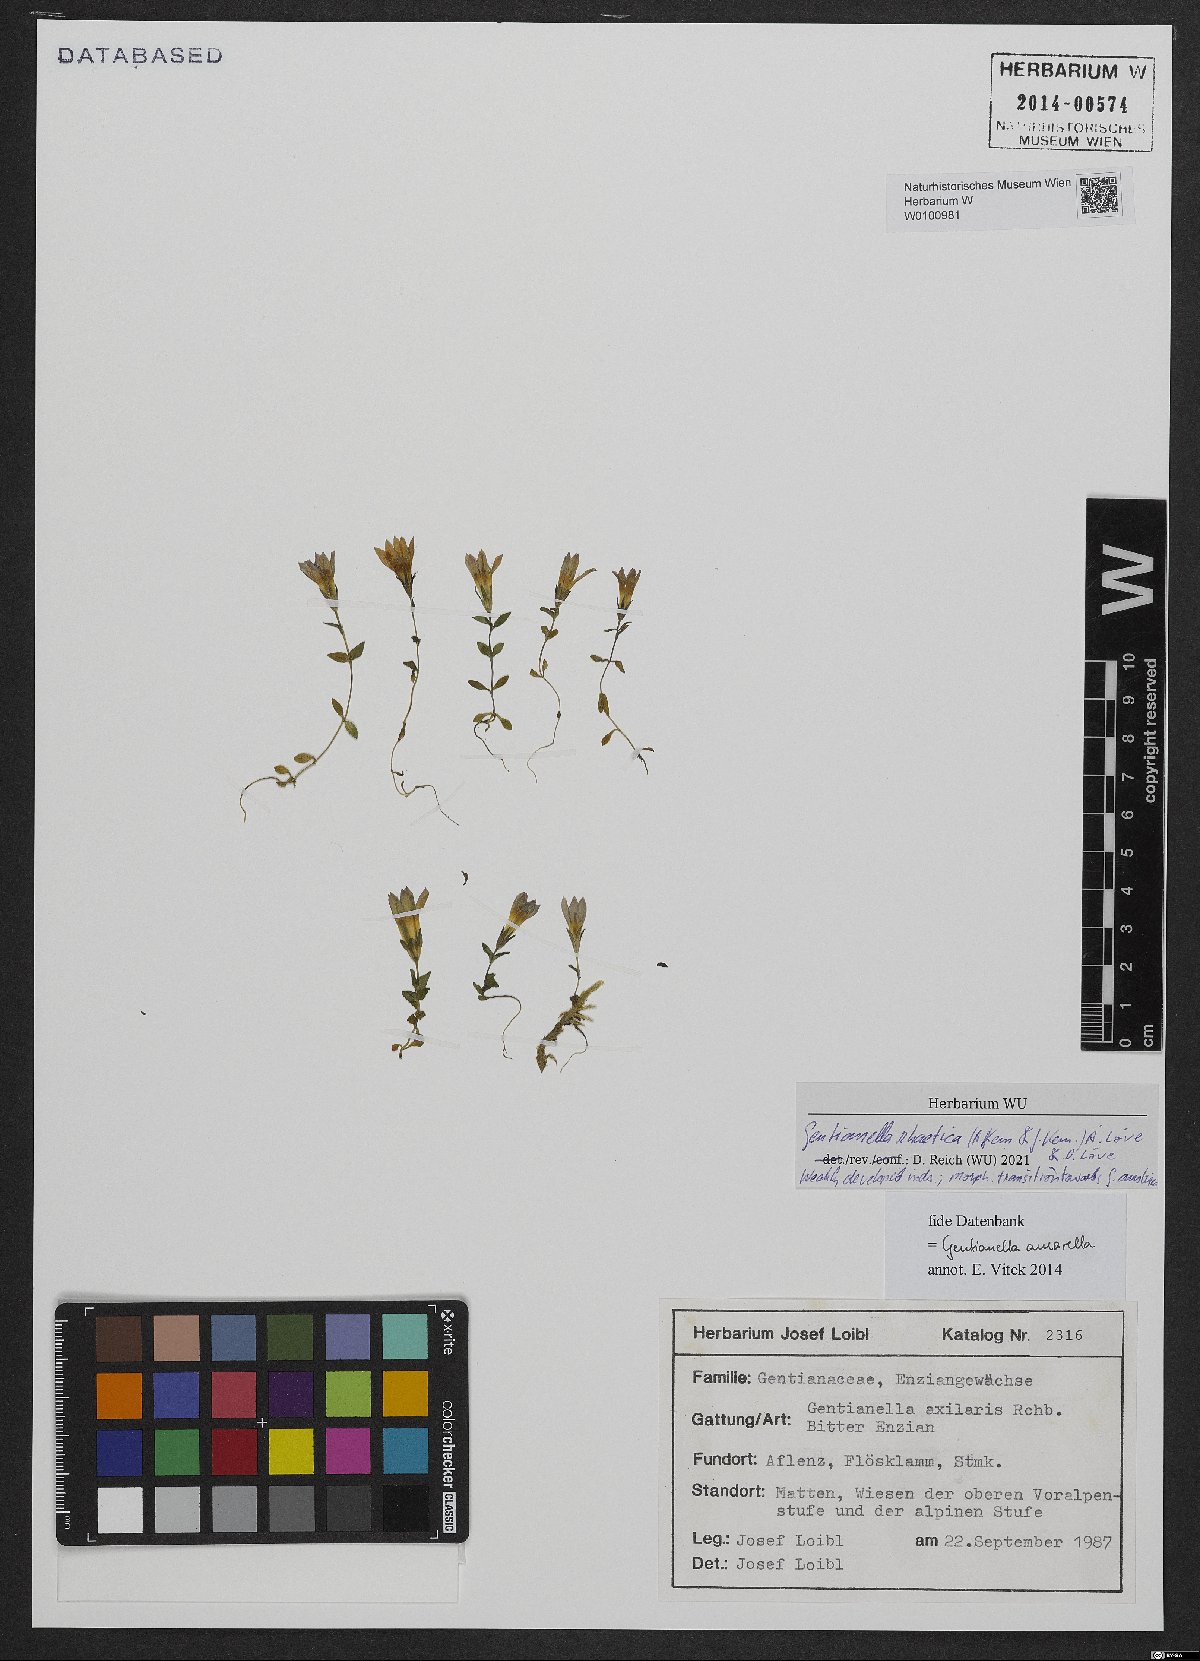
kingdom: Plantae
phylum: Tracheophyta
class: Magnoliopsida
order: Gentianales
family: Gentianaceae
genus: Gentianella
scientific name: Gentianella rhaetica
